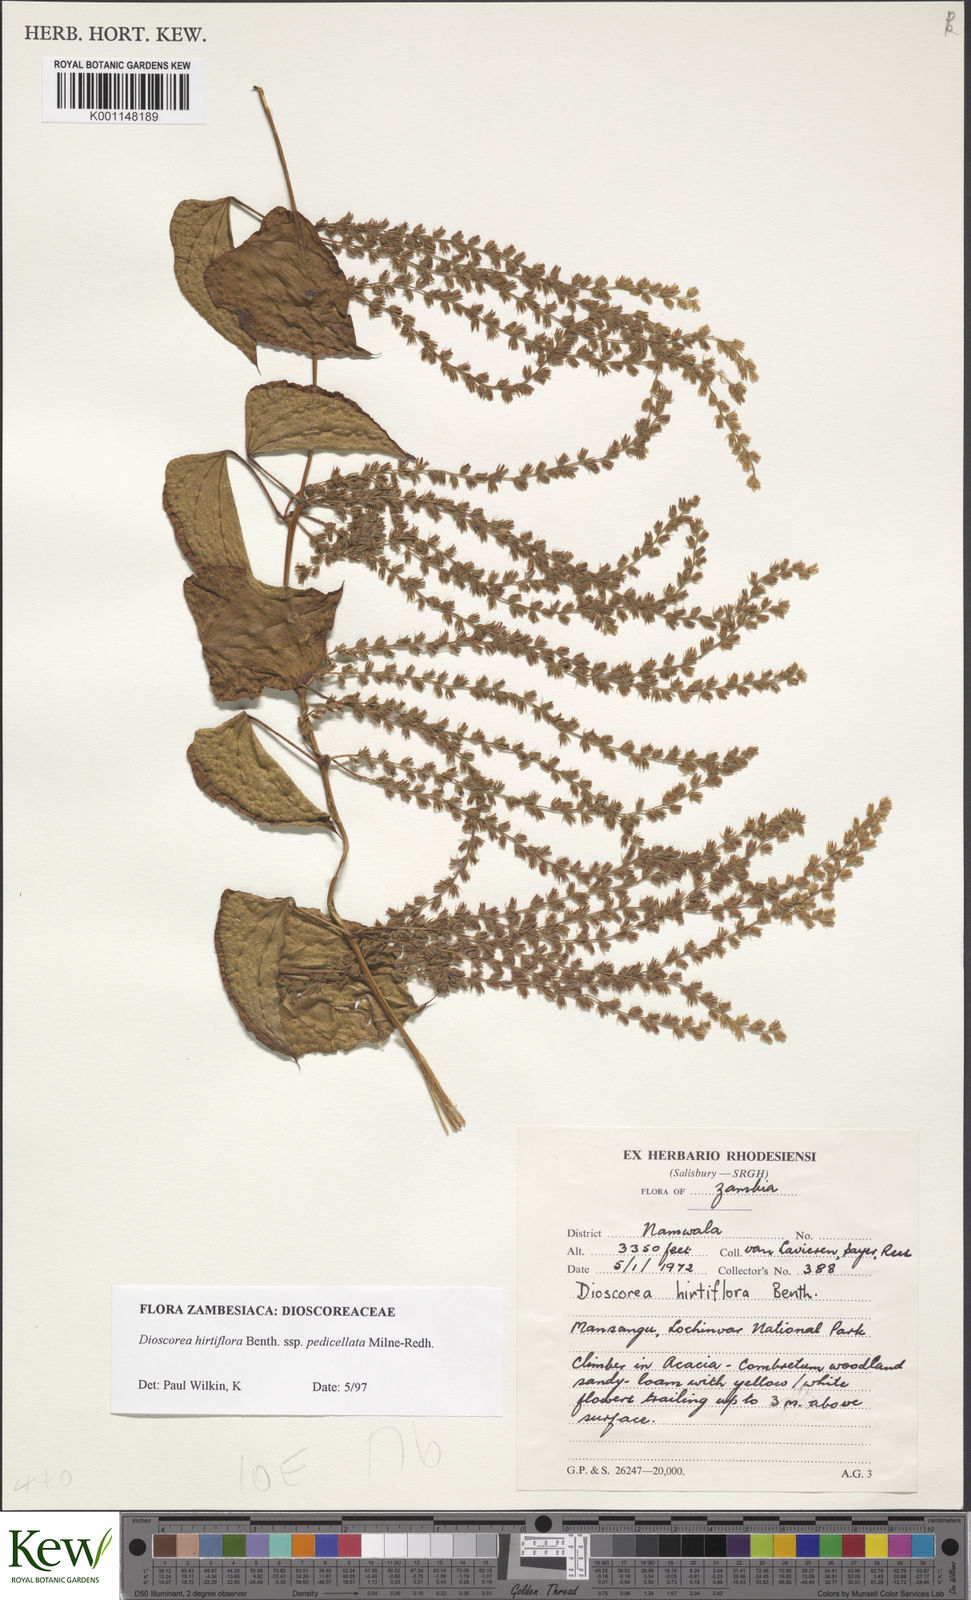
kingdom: Plantae
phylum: Tracheophyta
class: Liliopsida
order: Dioscoreales
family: Dioscoreaceae
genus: Dioscorea
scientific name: Dioscorea hirtiflora
